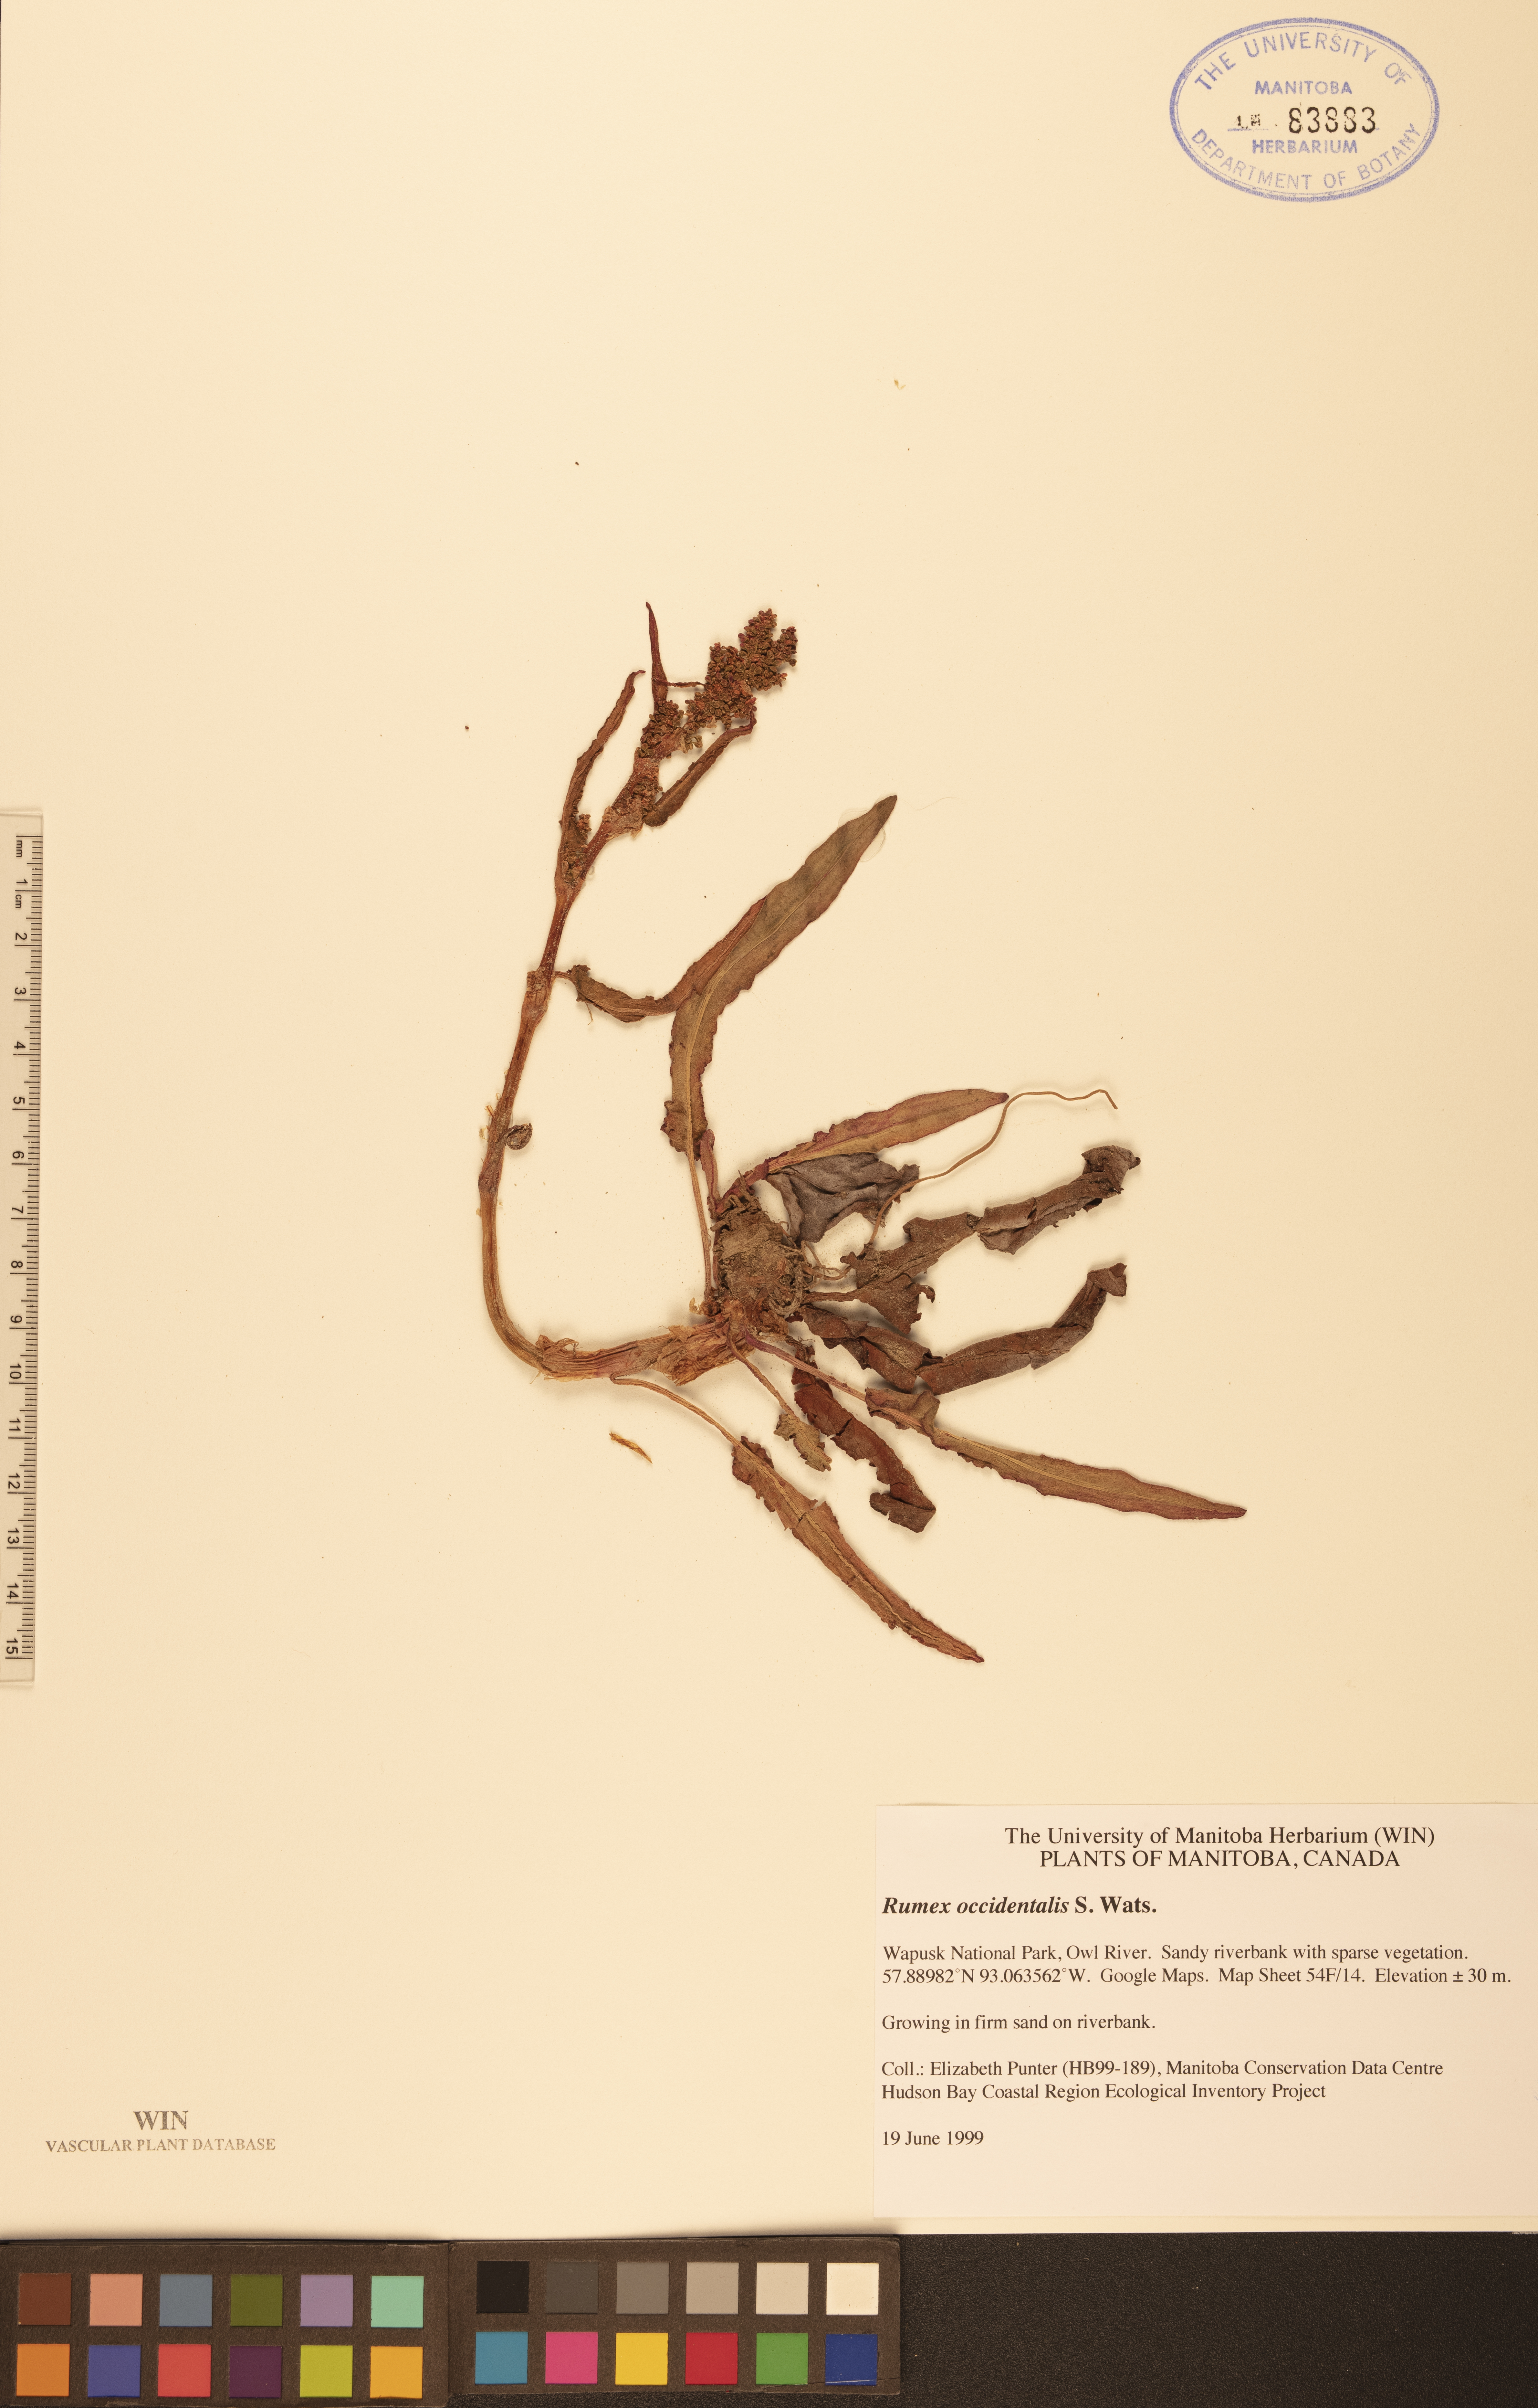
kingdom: Plantae
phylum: Tracheophyta
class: Magnoliopsida
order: Caryophyllales
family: Polygonaceae
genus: Rumex
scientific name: Rumex occidentalis
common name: Western dock
